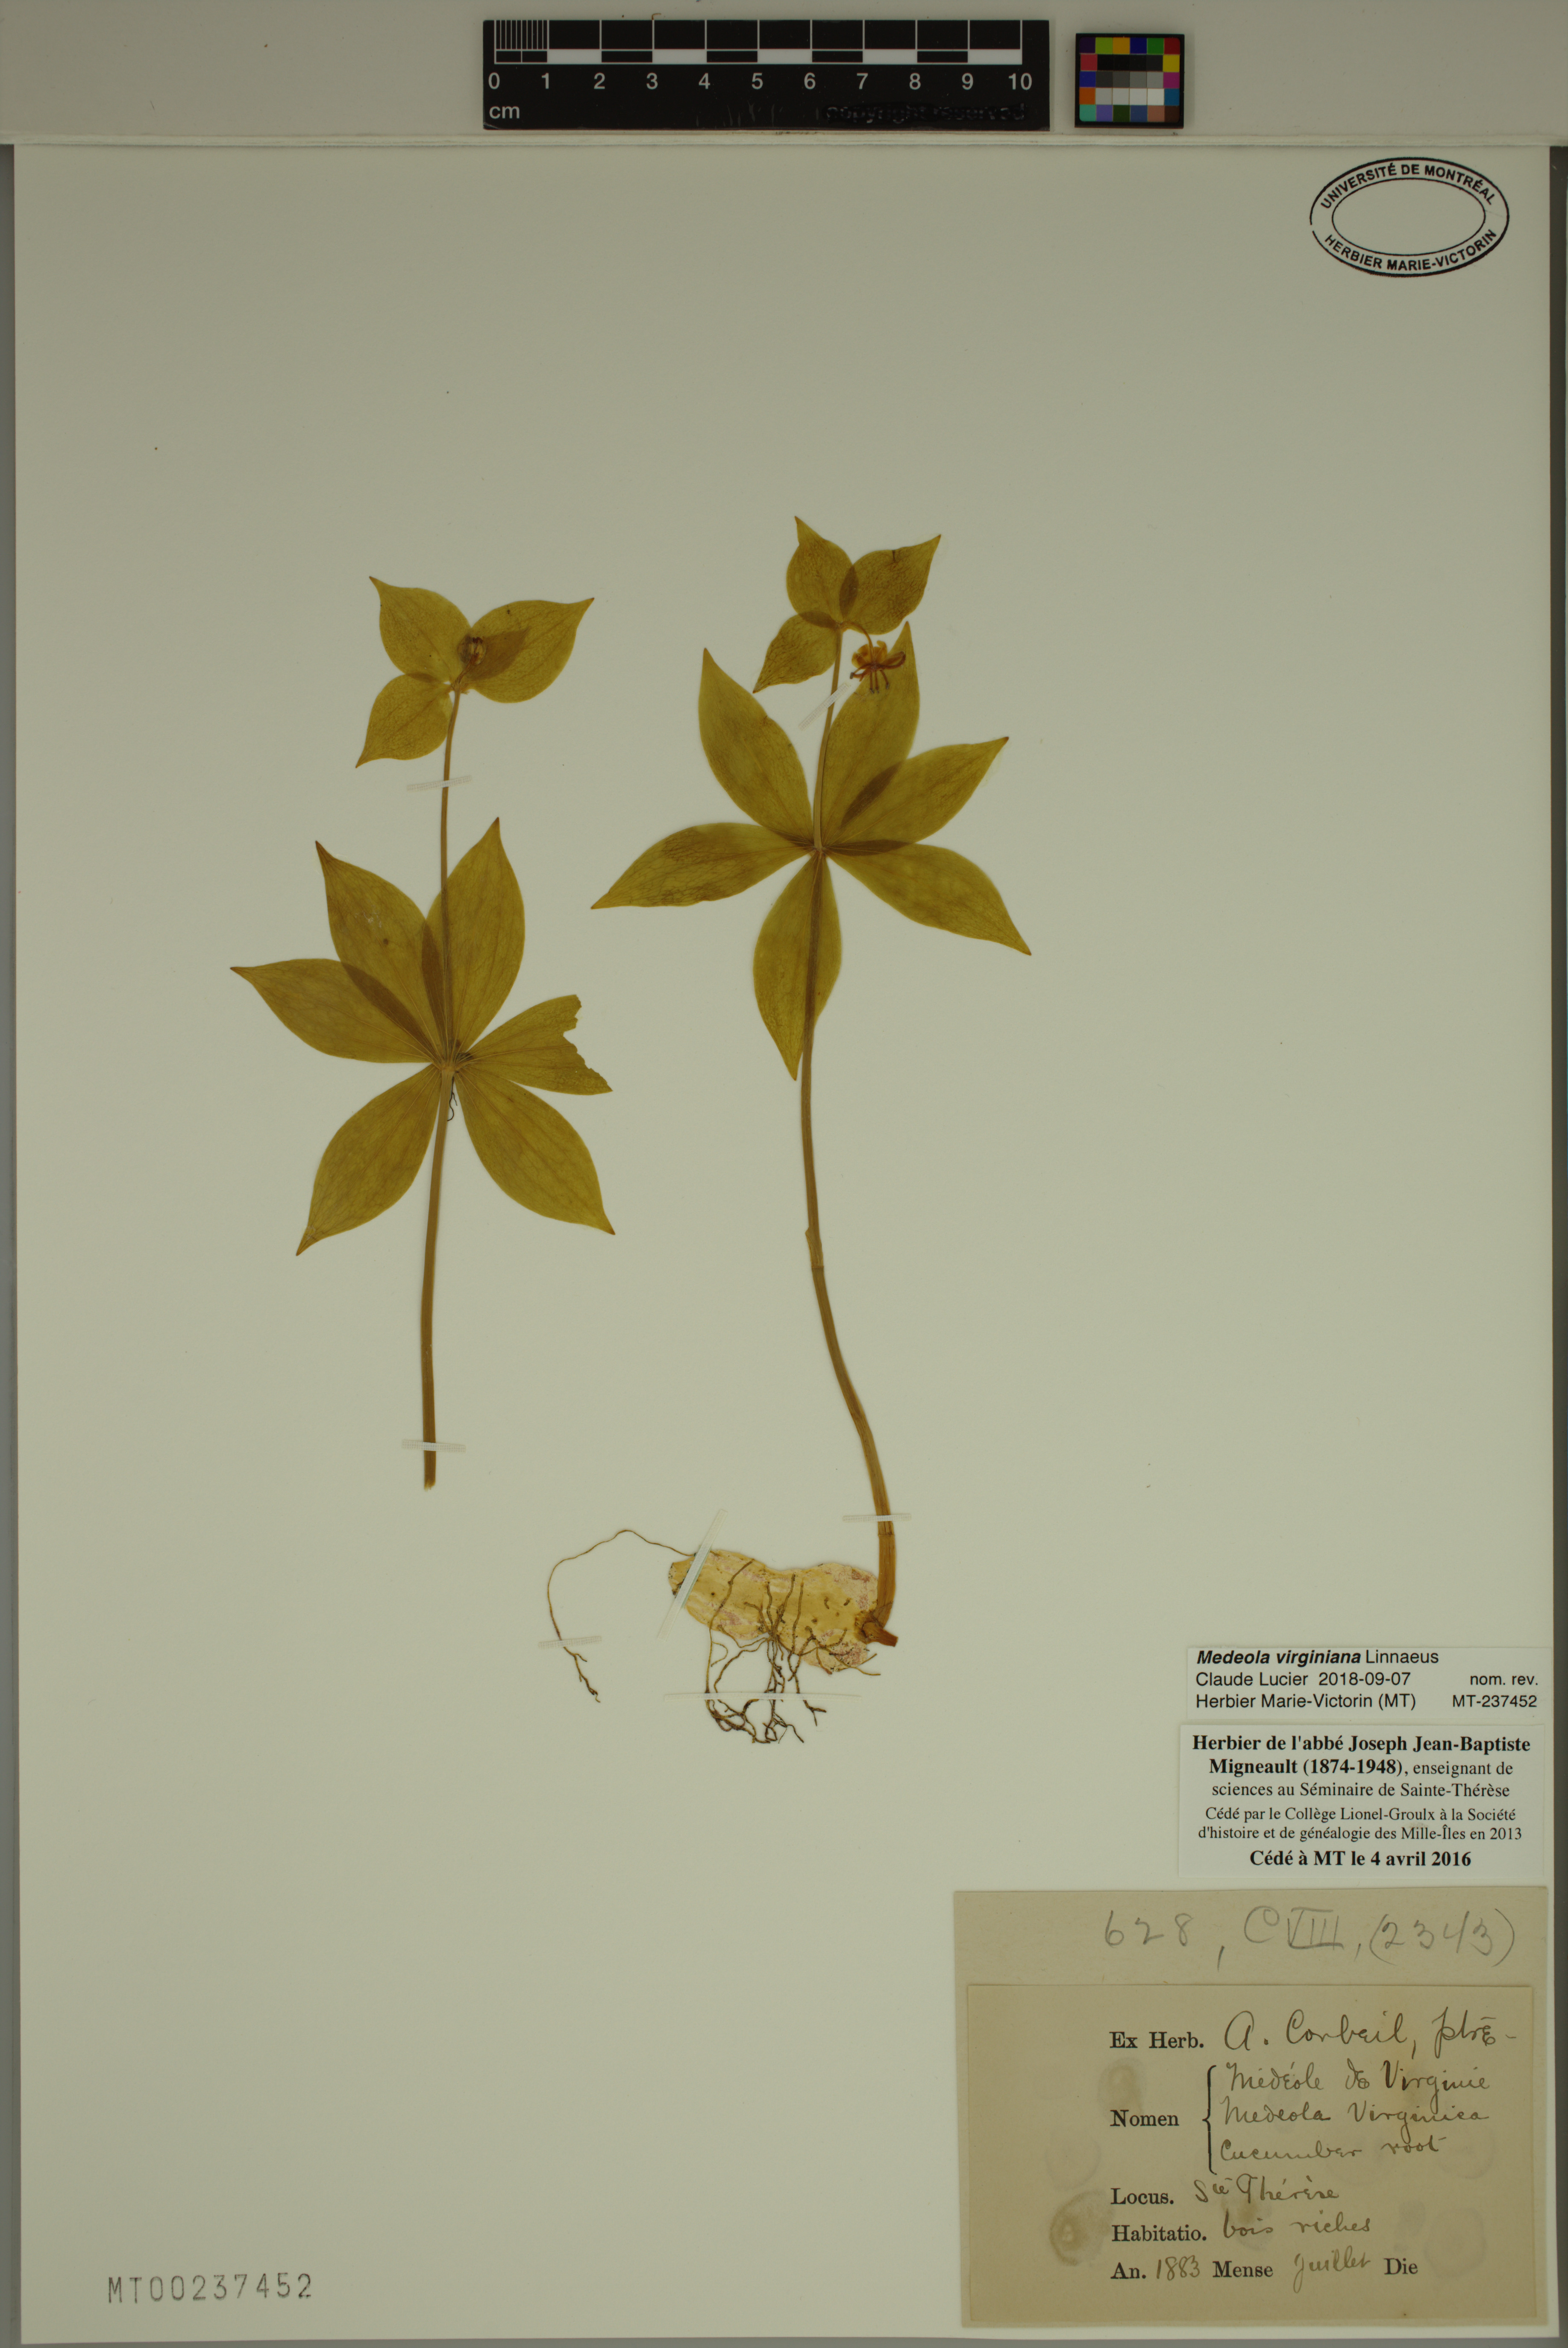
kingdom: Plantae
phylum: Tracheophyta
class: Liliopsida
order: Liliales
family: Liliaceae
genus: Medeola
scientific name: Medeola virginiana
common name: Indian cucumber-root
